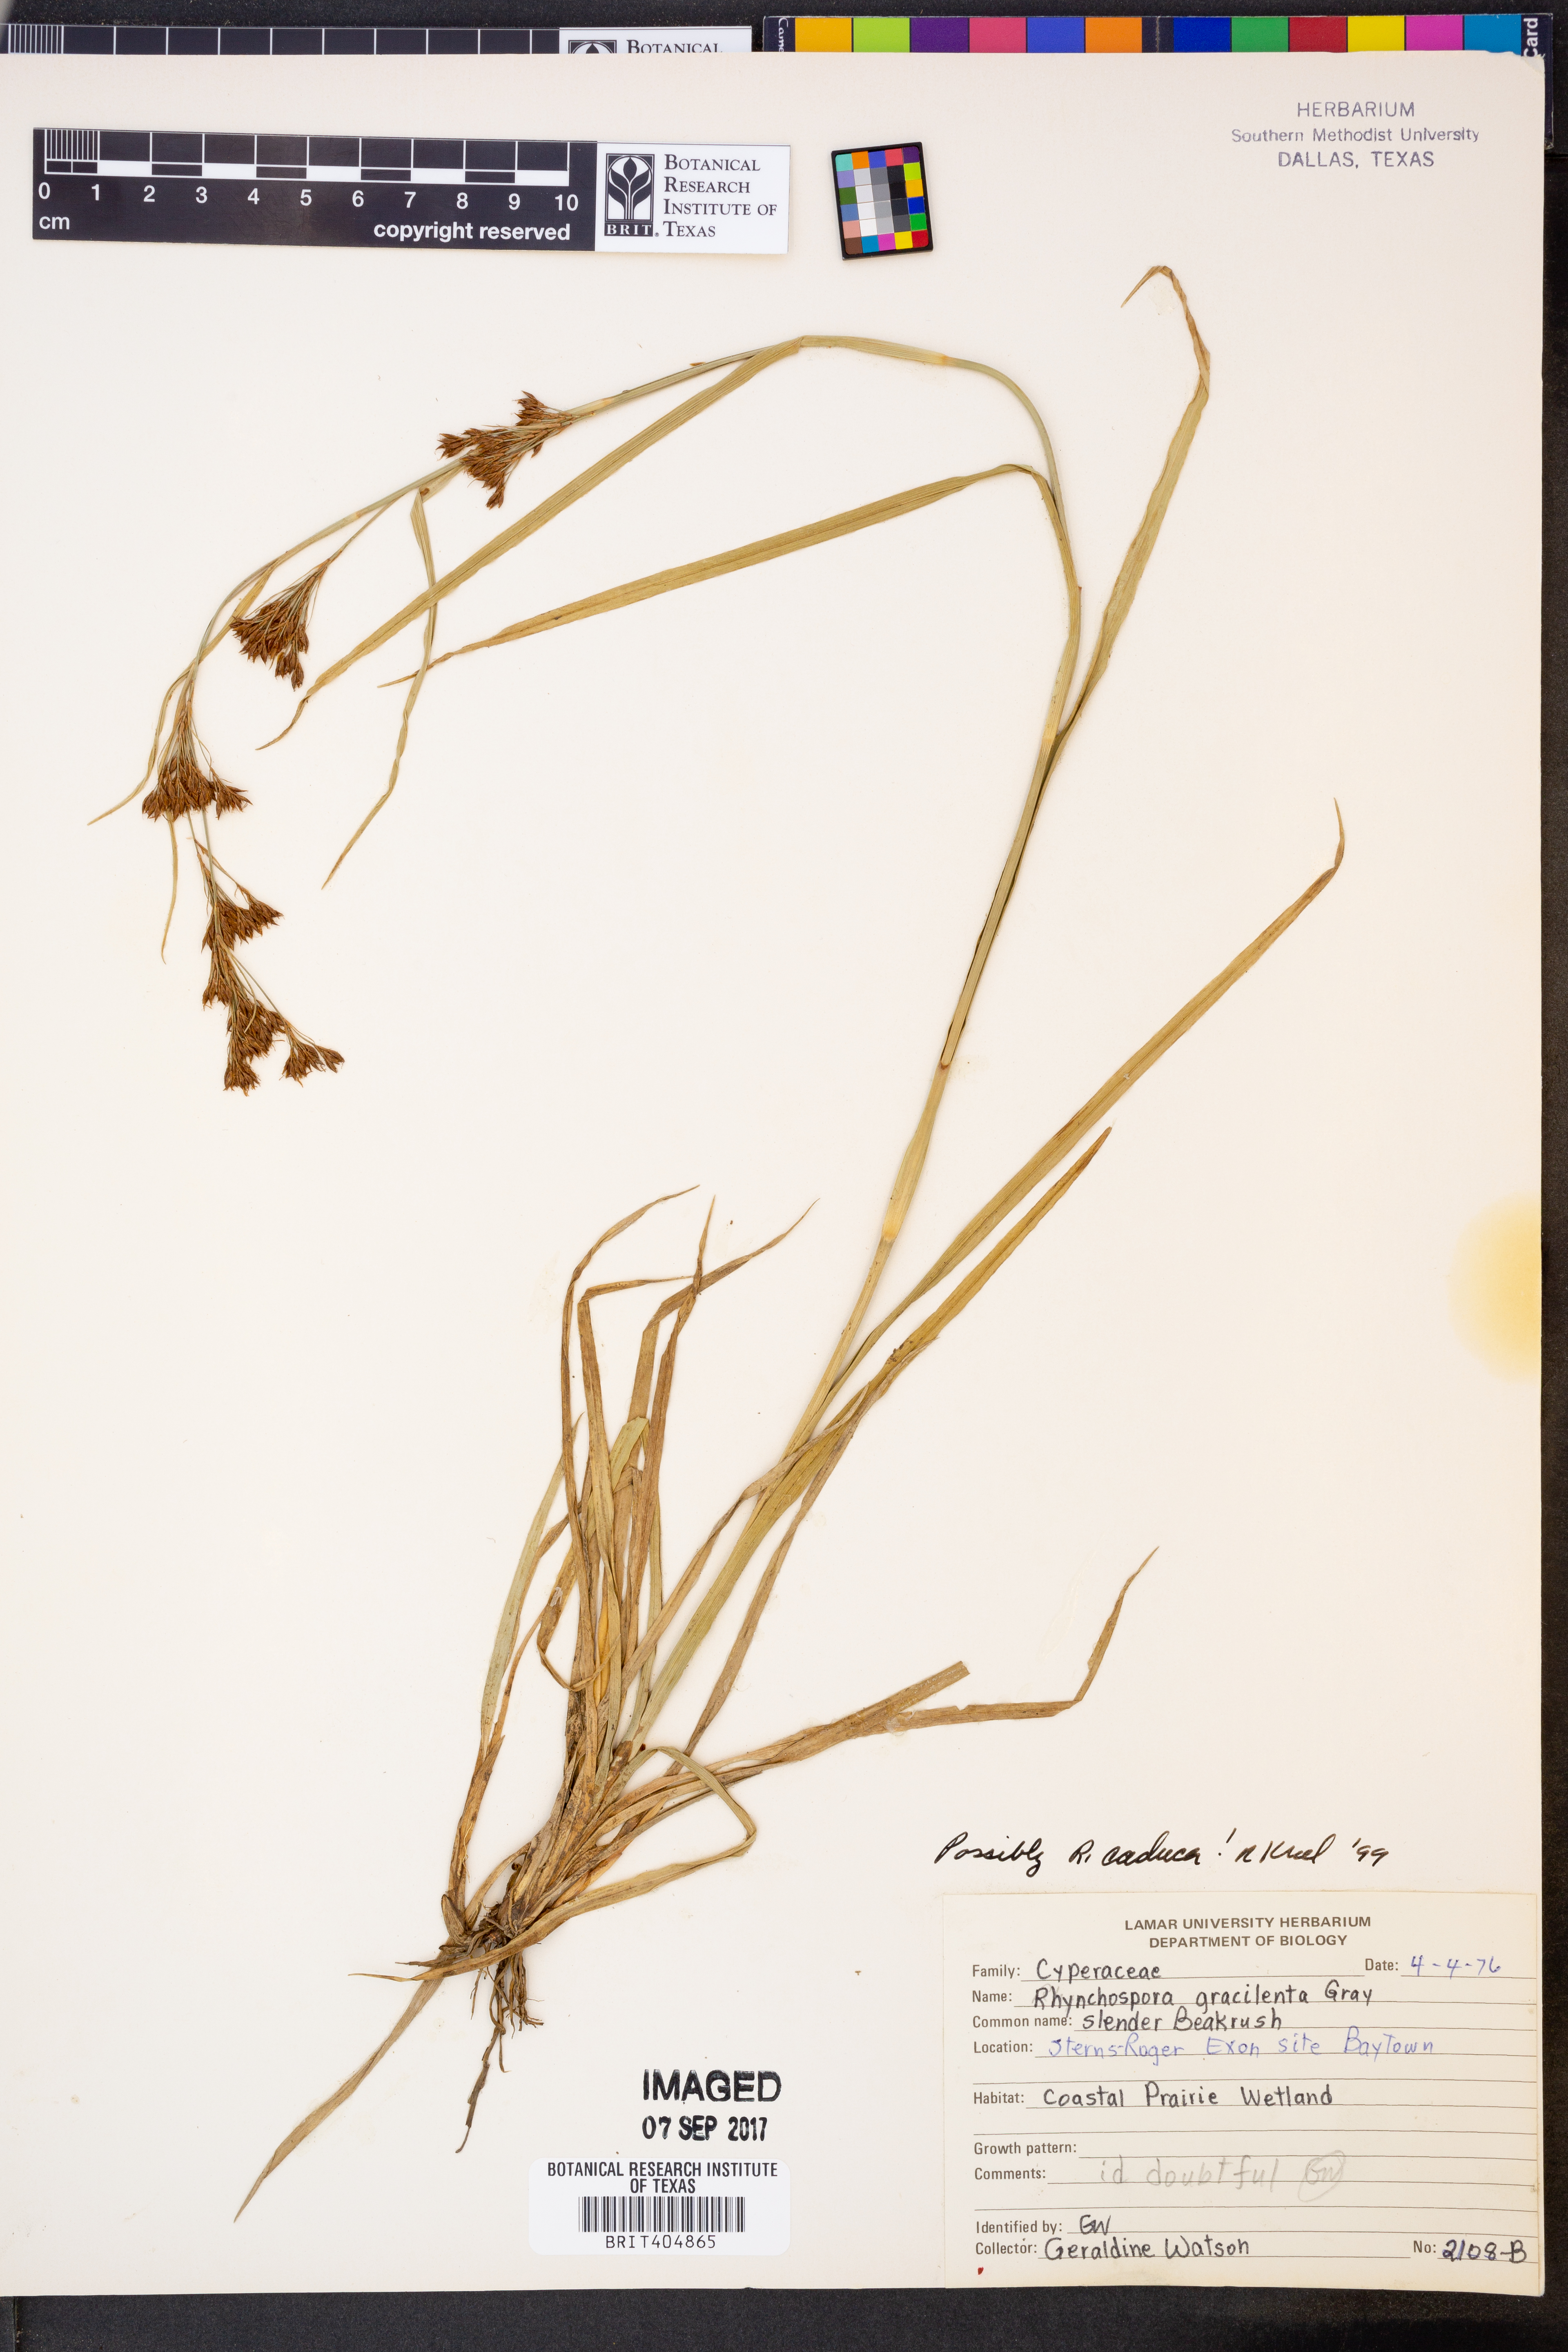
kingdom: Plantae
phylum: Tracheophyta
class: Liliopsida
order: Poales
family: Cyperaceae
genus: Rhynchospora
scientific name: Rhynchospora caduca
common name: Anglestem beaksedge
